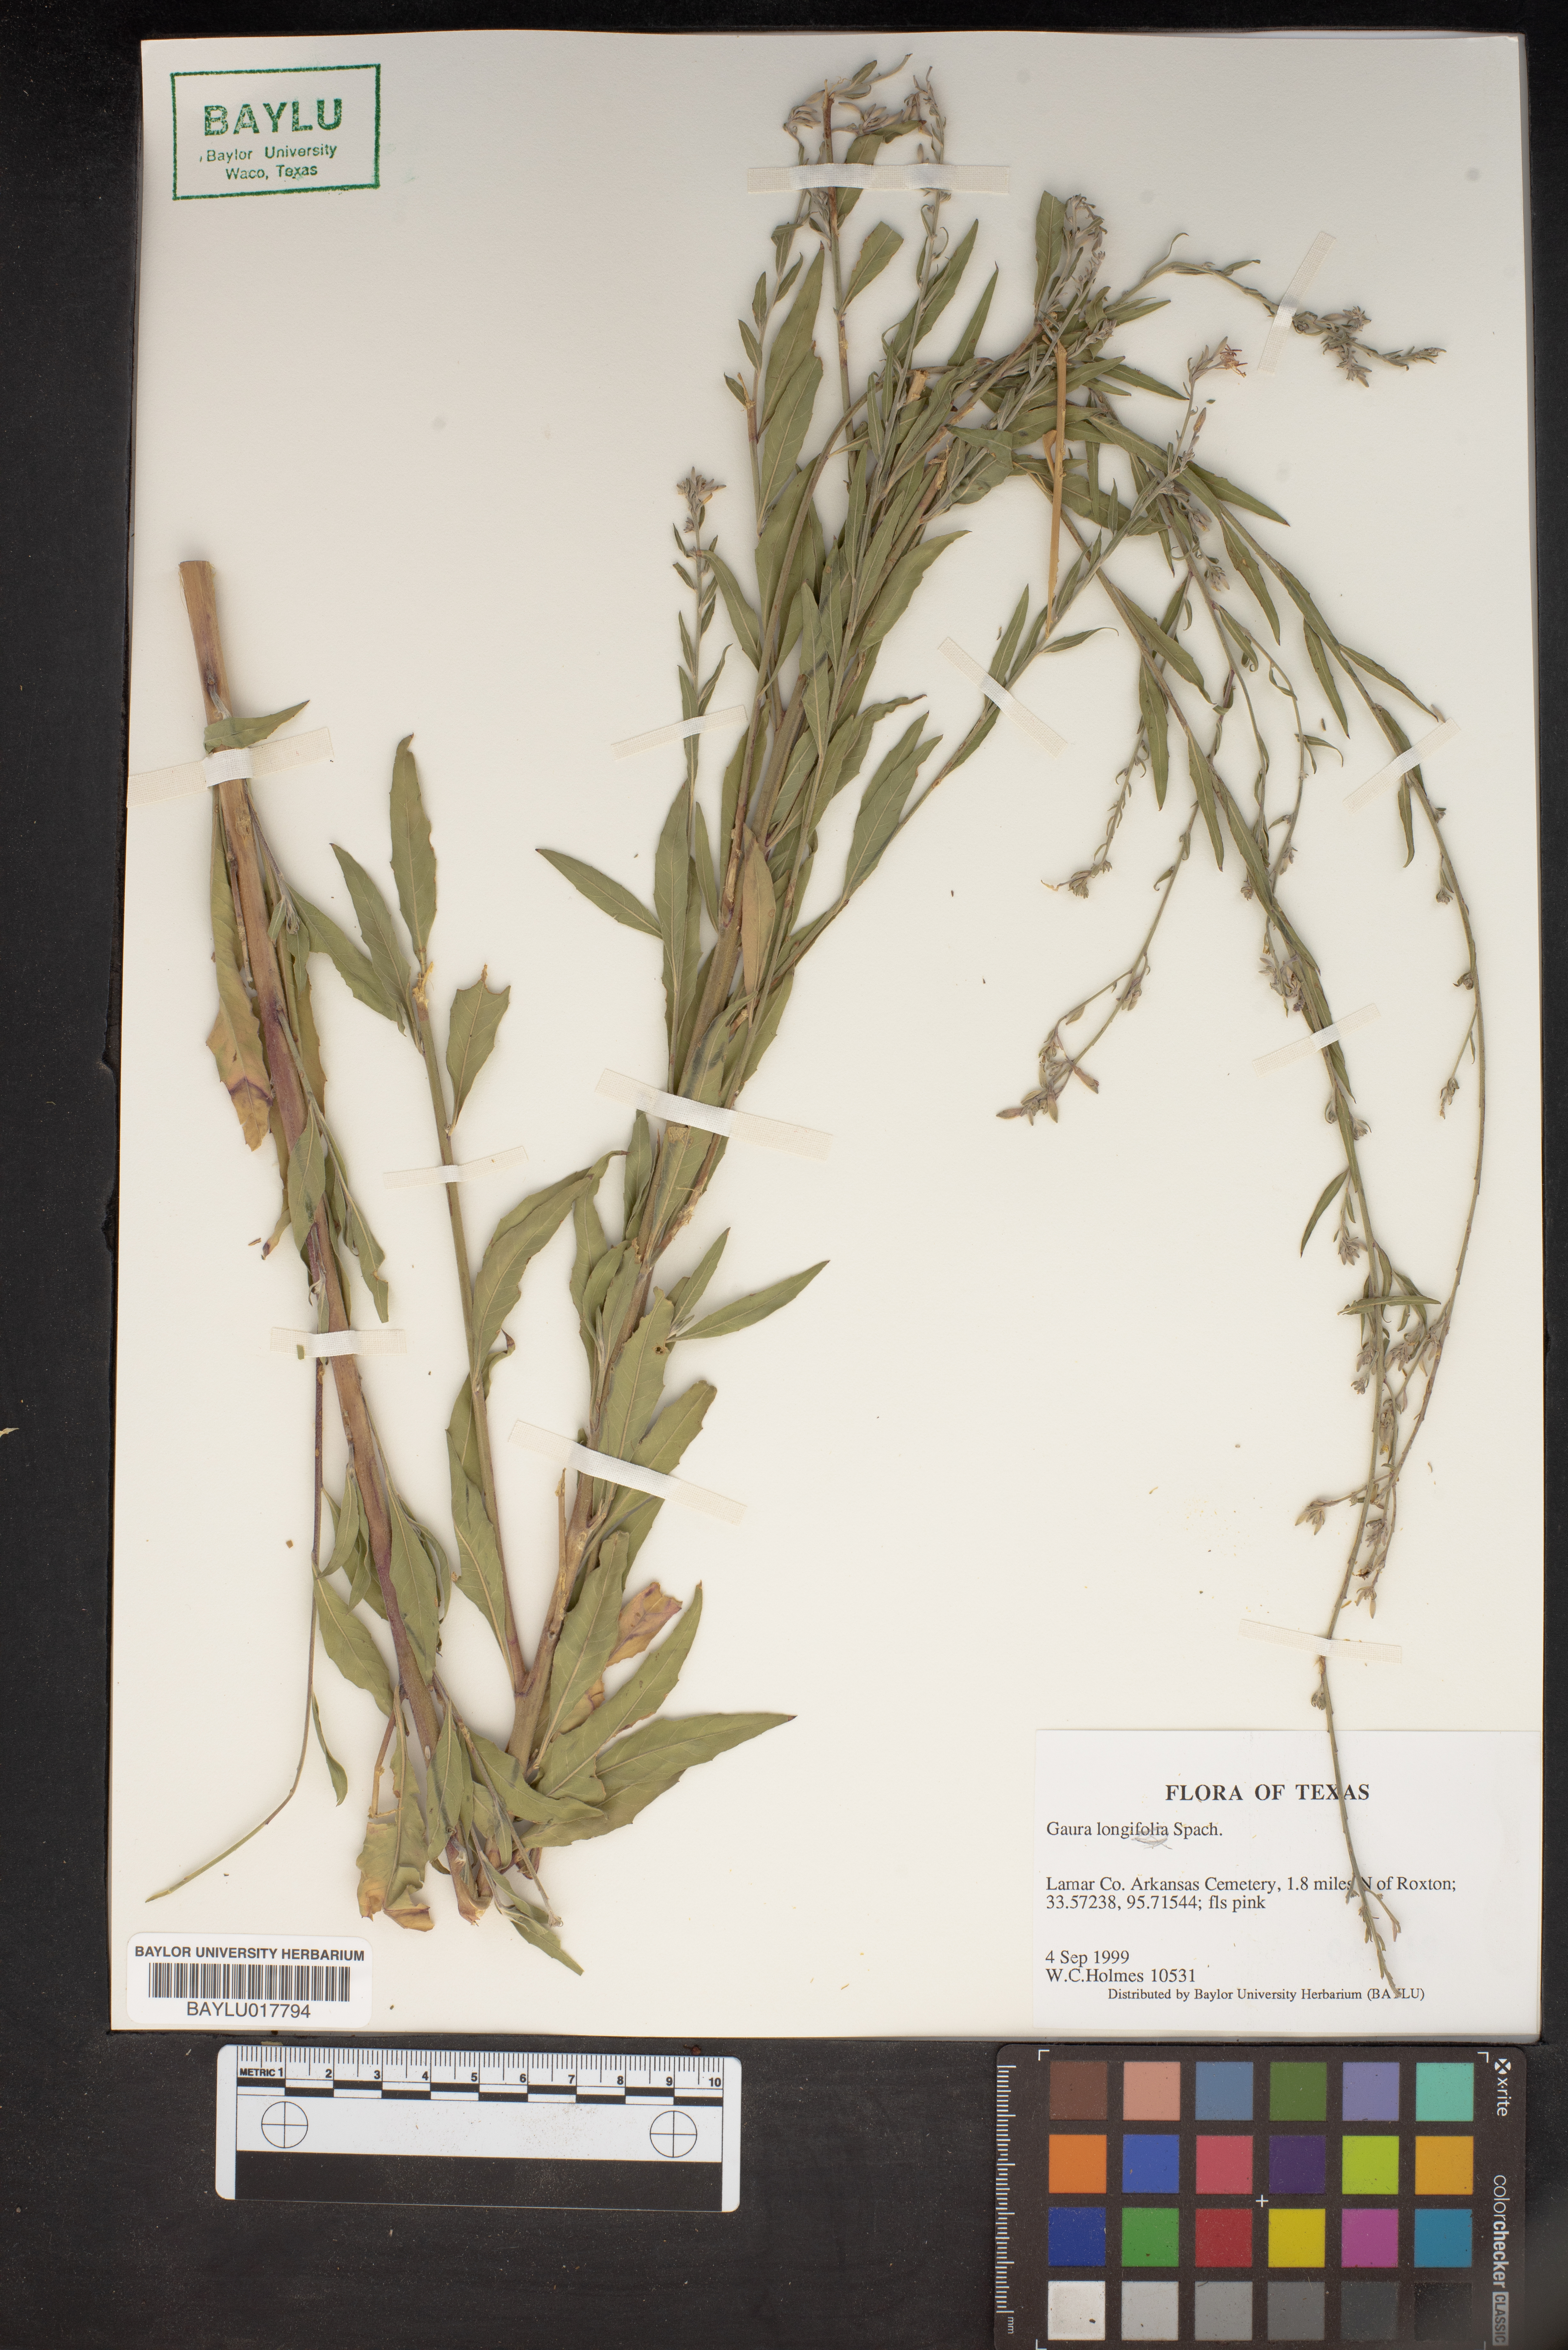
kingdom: Plantae
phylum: Tracheophyta
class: Magnoliopsida
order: Myrtales
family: Onagraceae
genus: Oenothera
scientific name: Oenothera filiformis
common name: Longflower beeblossom
